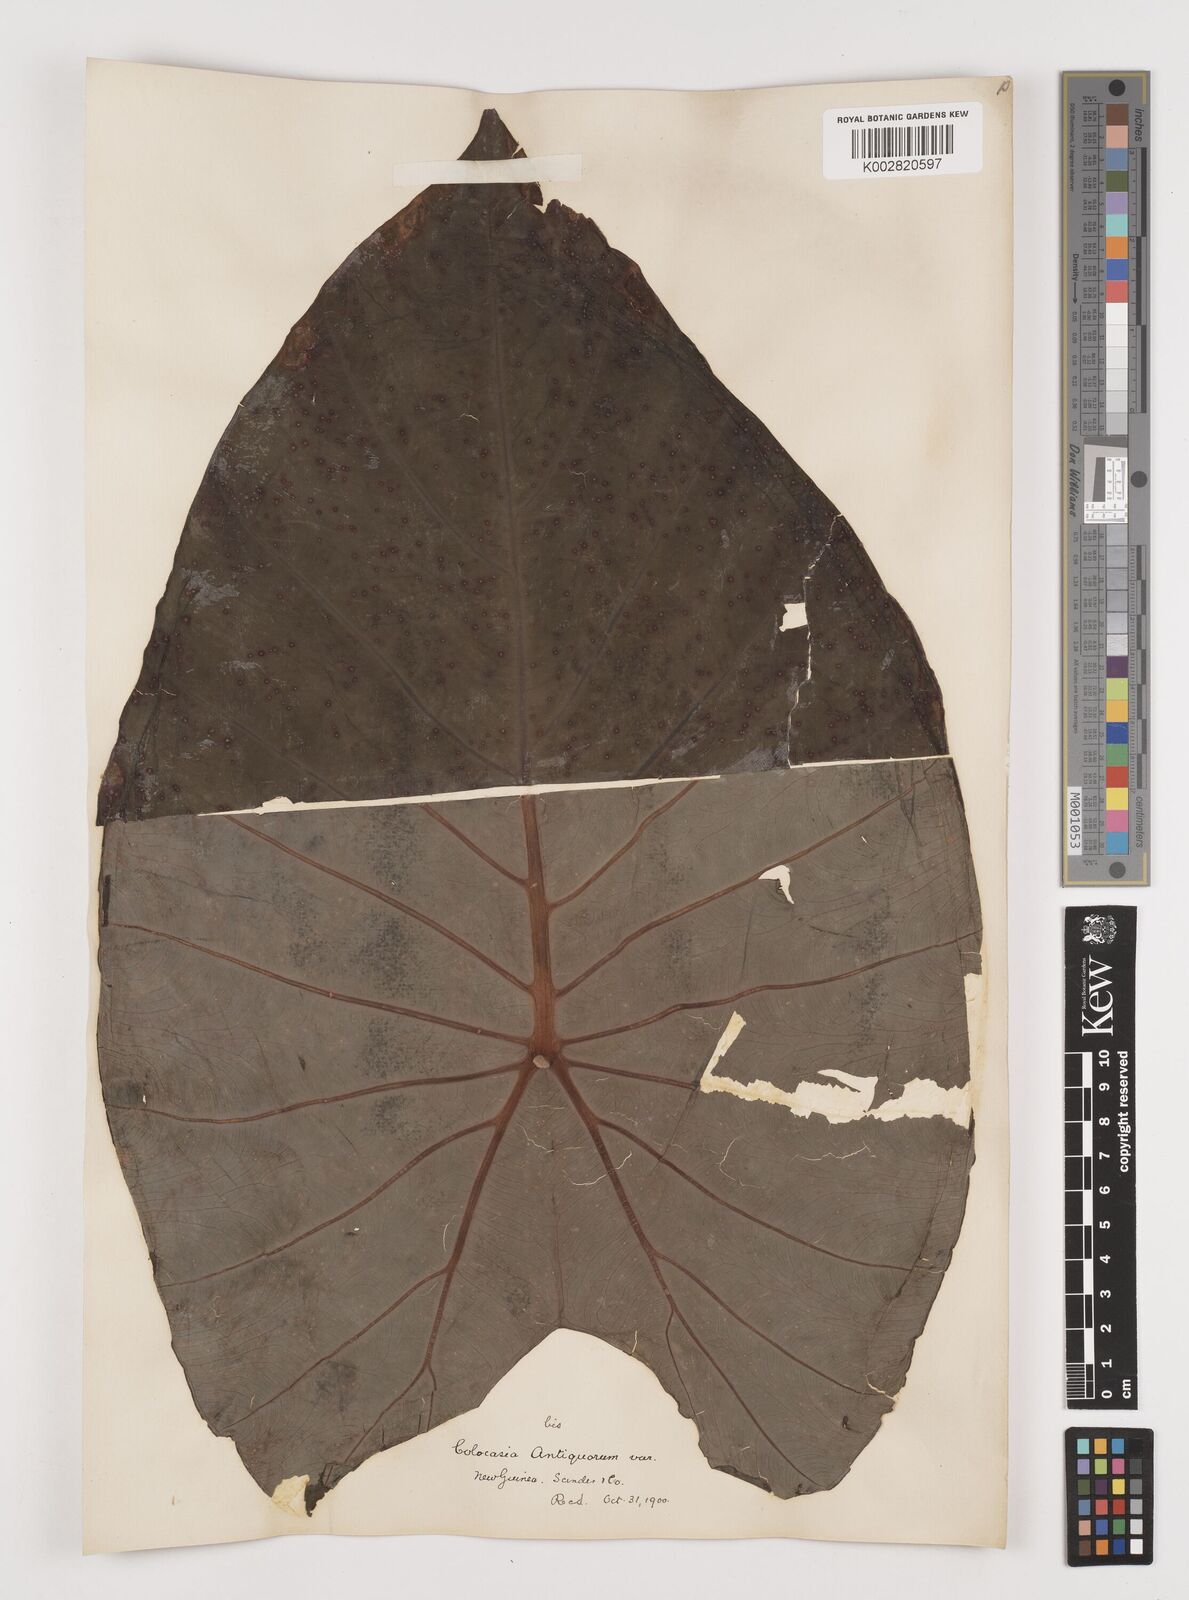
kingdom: Plantae
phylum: Tracheophyta
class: Liliopsida
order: Alismatales
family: Araceae
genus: Colocasia
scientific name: Colocasia esculenta
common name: Taro
